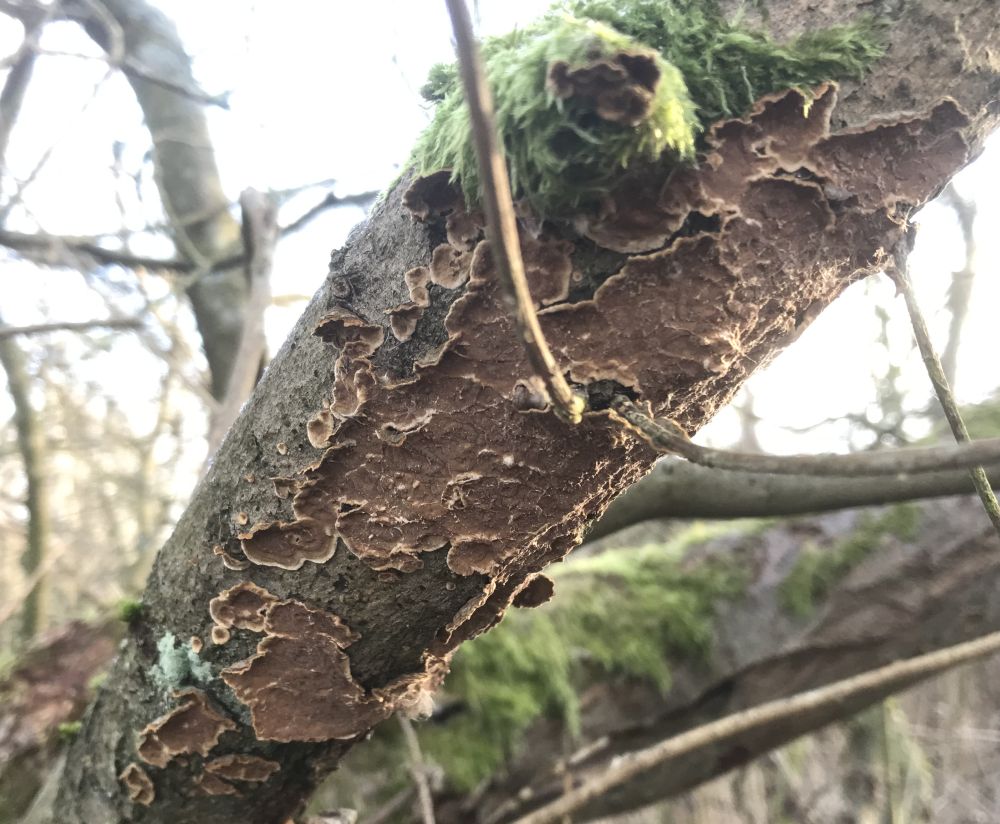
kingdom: Fungi
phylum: Basidiomycota
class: Agaricomycetes
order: Hymenochaetales
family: Hymenochaetaceae
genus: Hydnoporia
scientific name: Hydnoporia tabacina
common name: tobaksbrun ruslædersvamp
